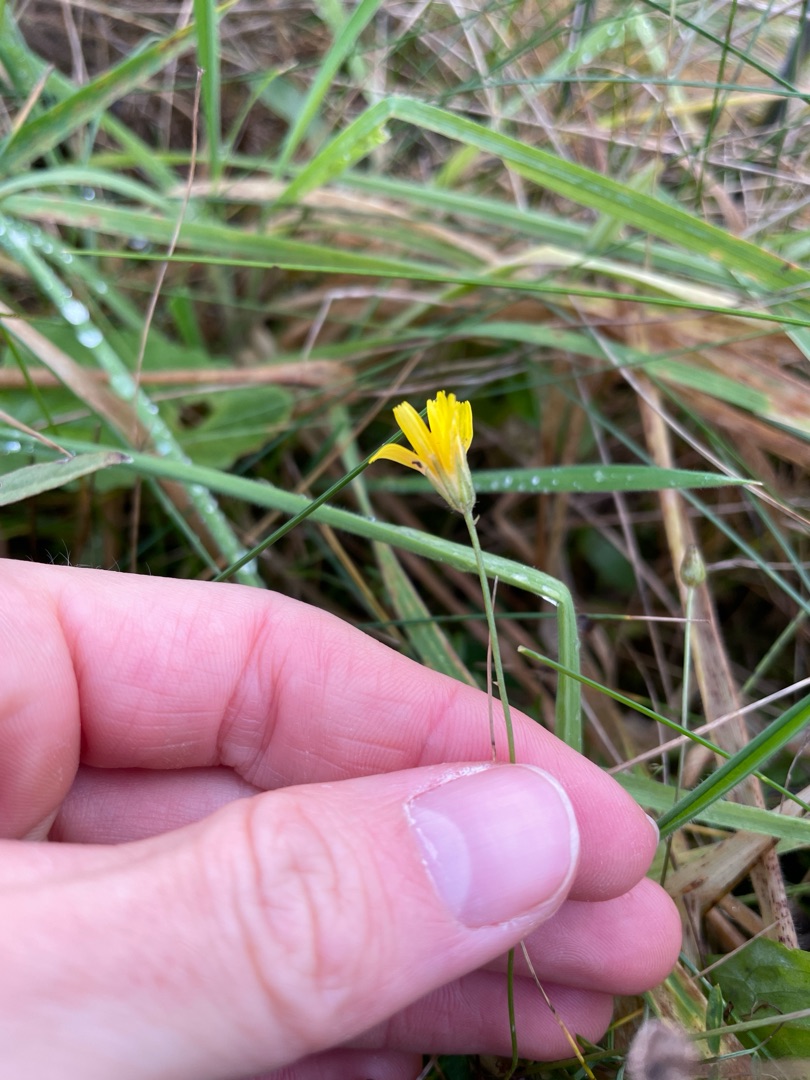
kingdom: Plantae
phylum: Tracheophyta
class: Magnoliopsida
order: Asterales
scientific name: Asterales
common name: Kurvplanteordenen
